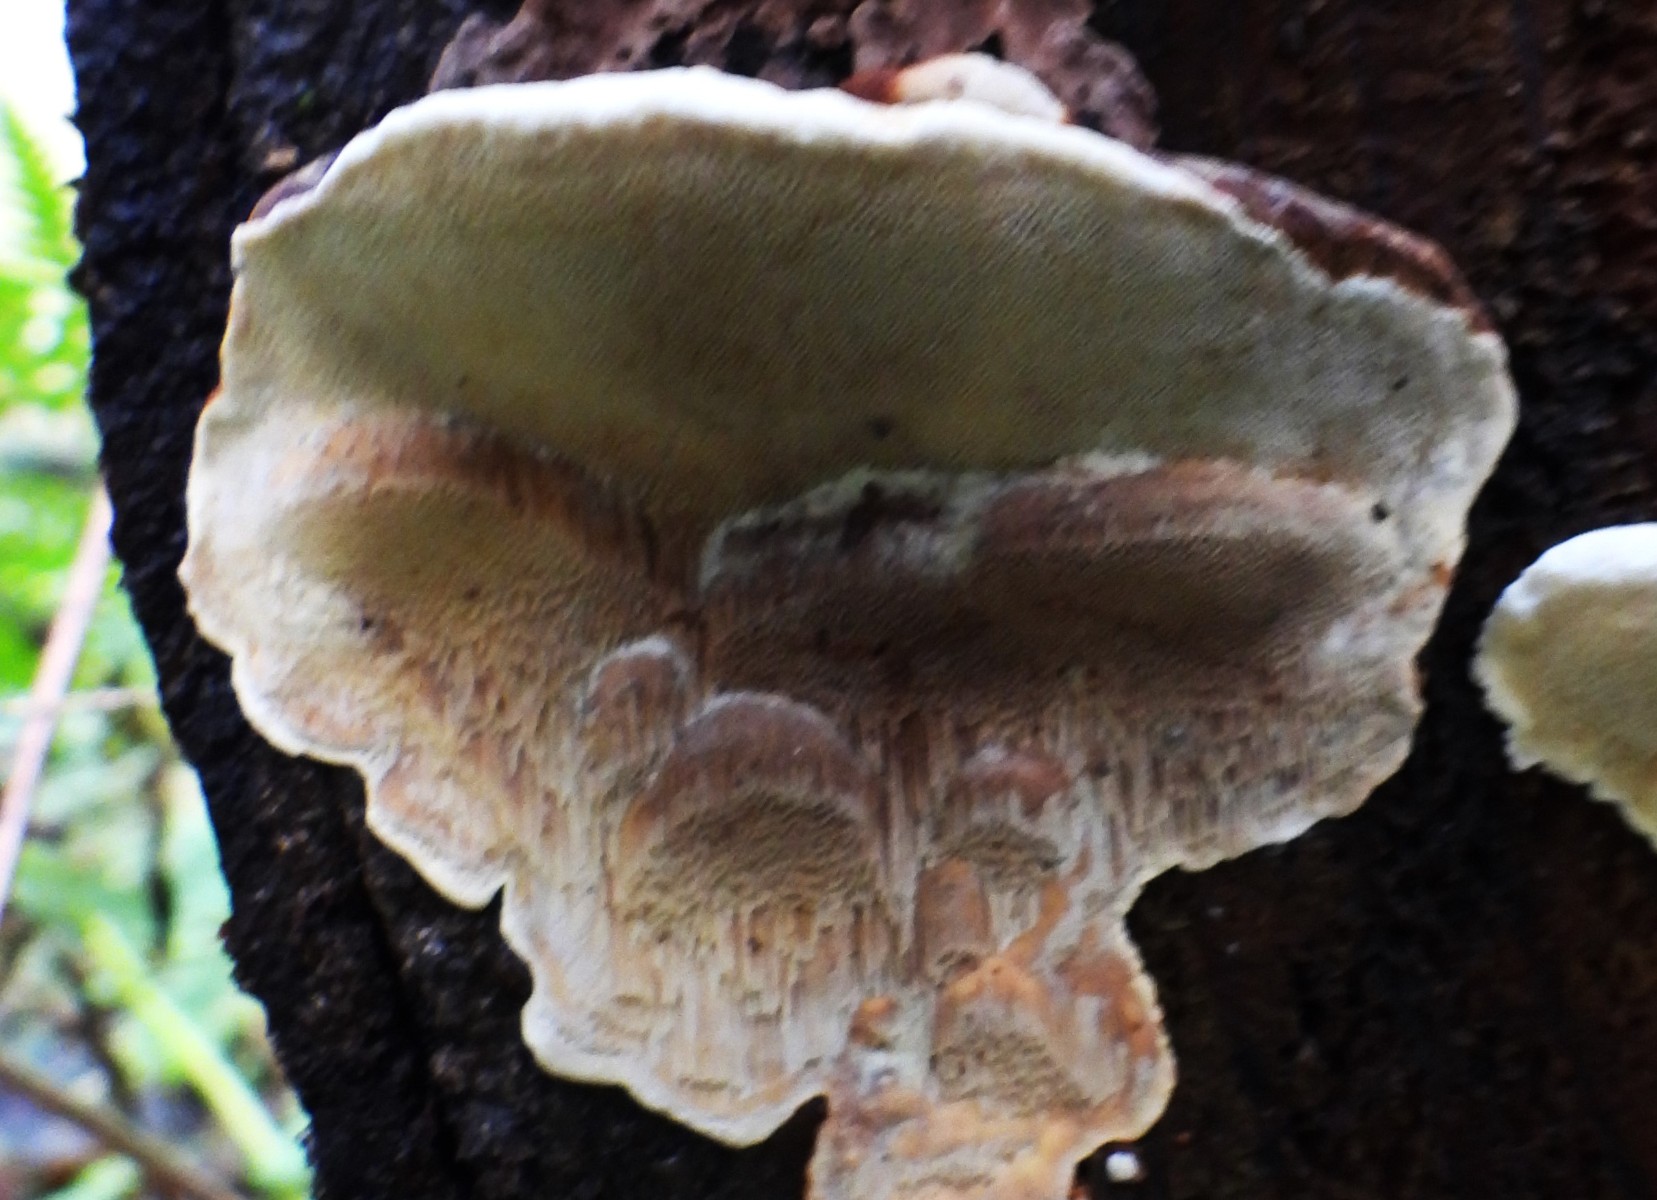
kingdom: Fungi
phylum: Basidiomycota
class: Agaricomycetes
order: Russulales
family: Bondarzewiaceae
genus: Heterobasidion
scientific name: Heterobasidion annosum
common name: almindelig rodfordærver
